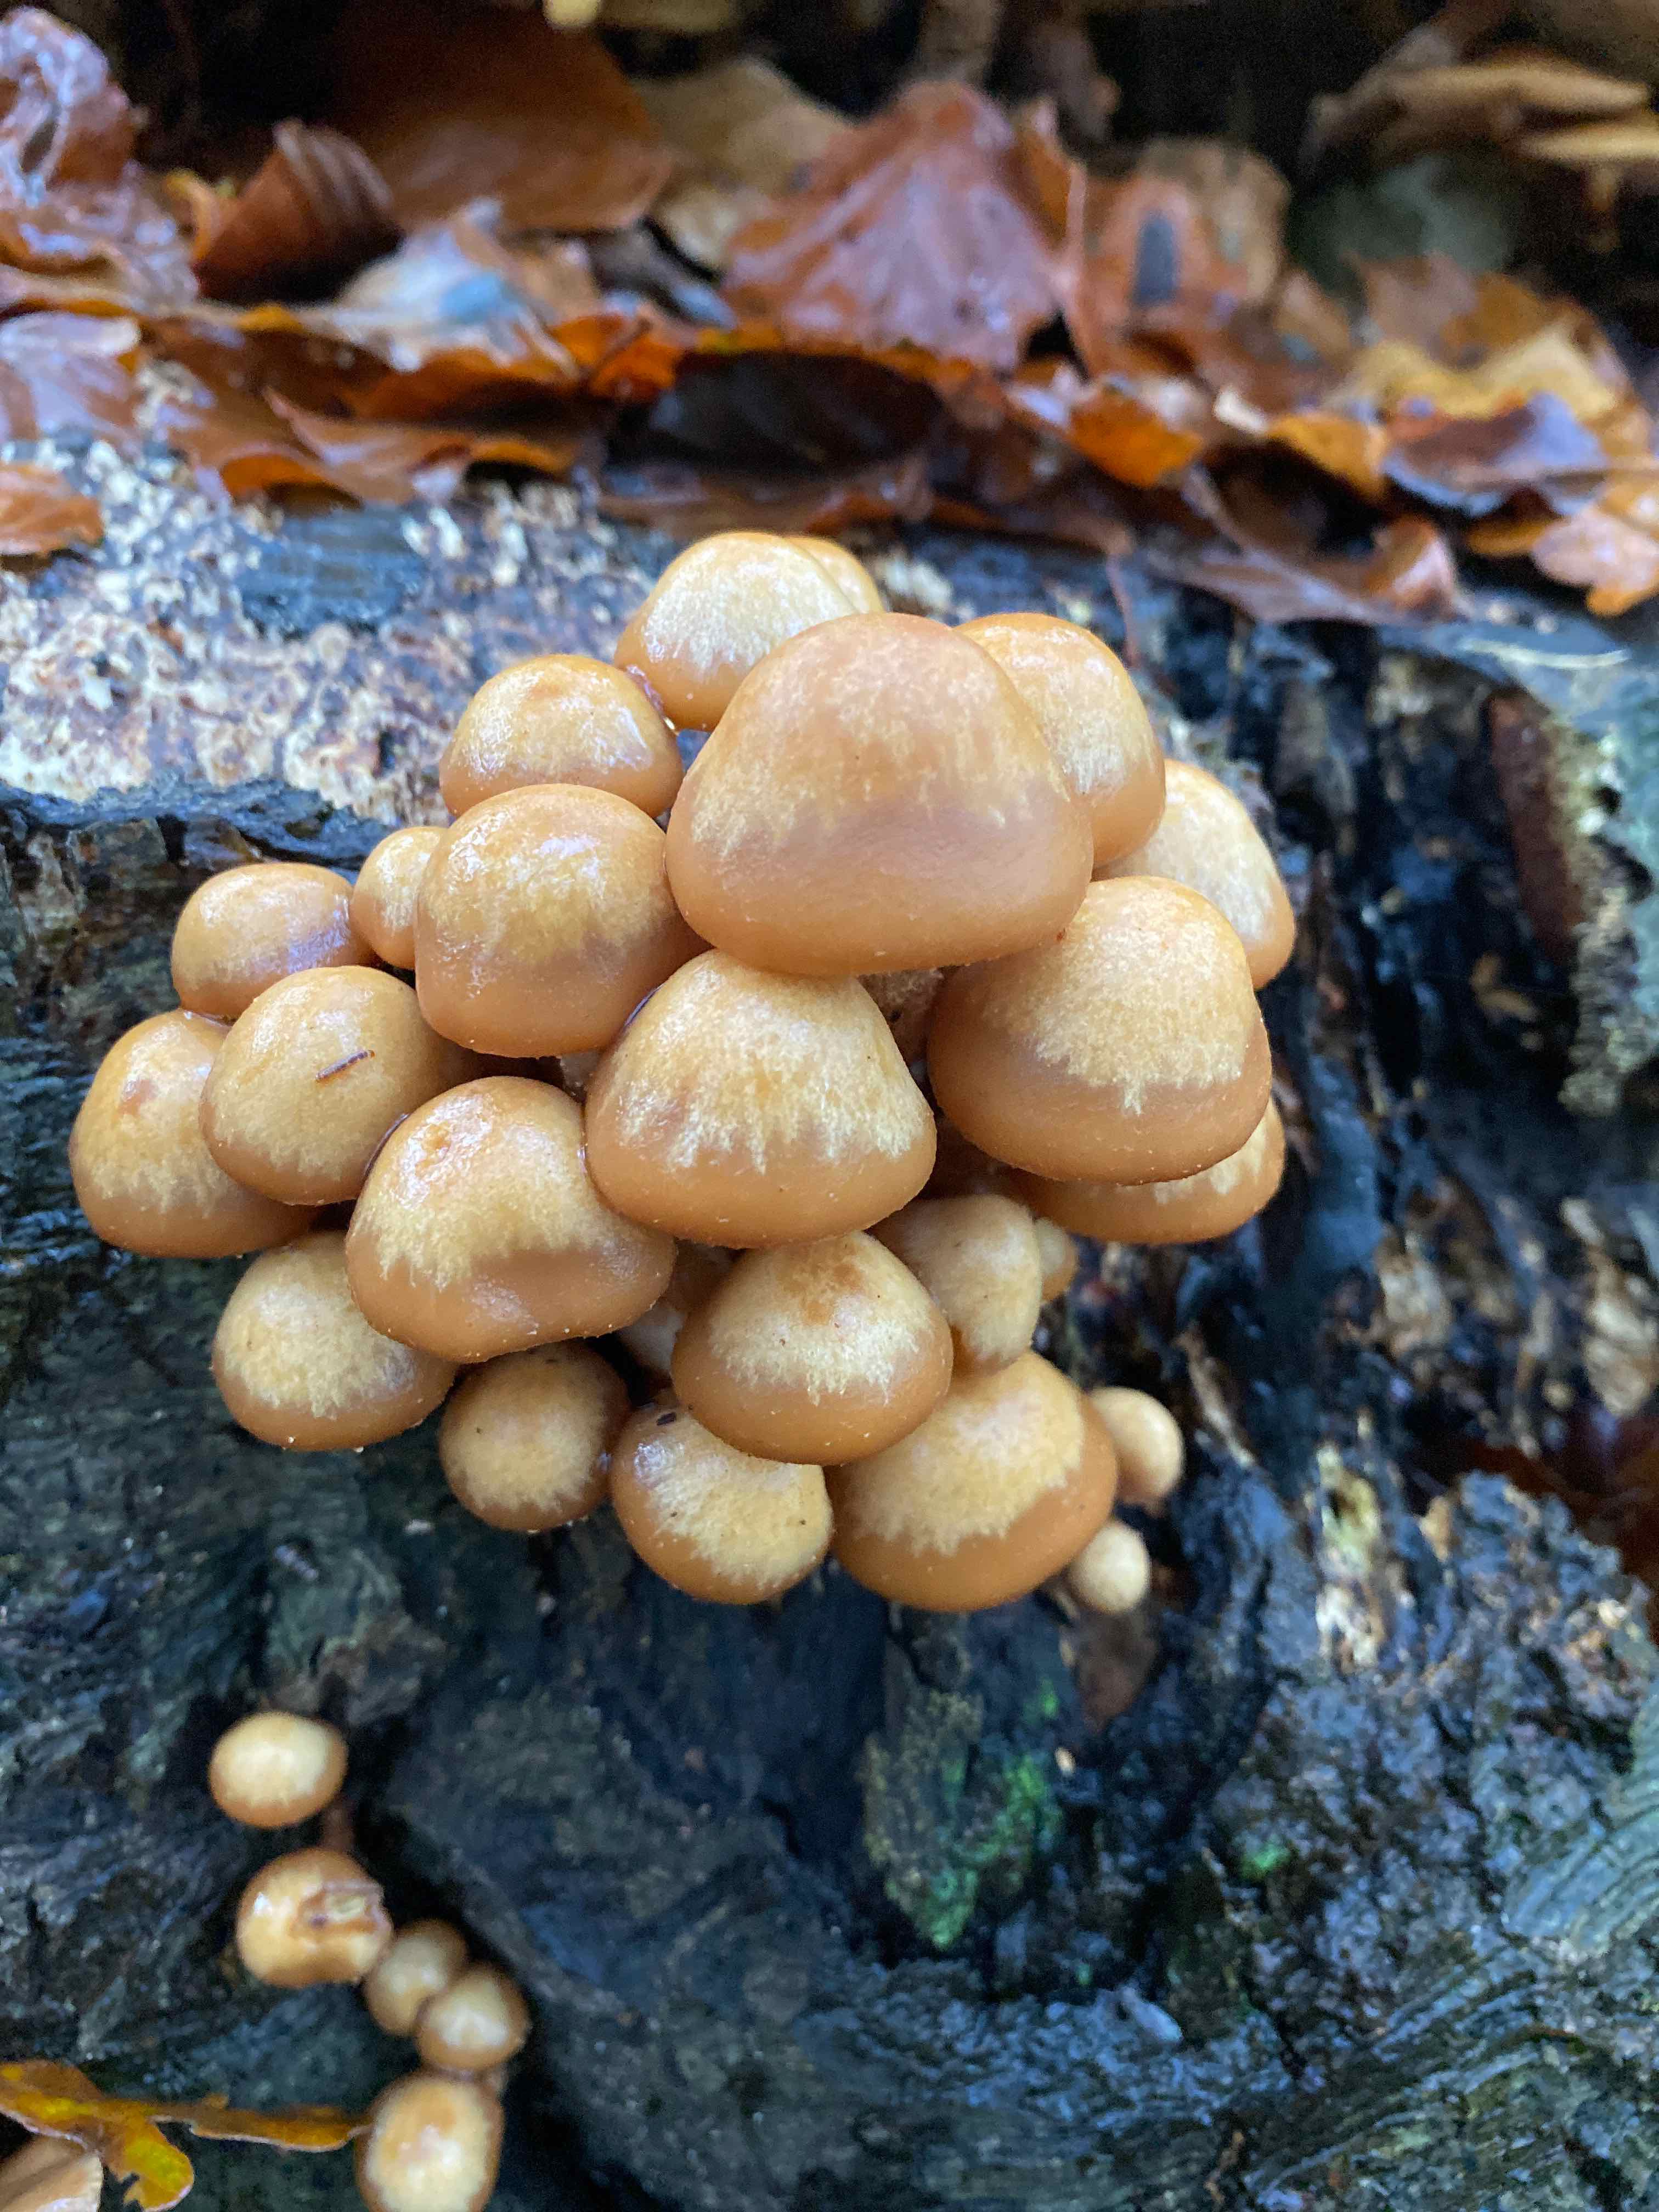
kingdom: Fungi
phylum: Basidiomycota
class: Agaricomycetes
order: Agaricales
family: Strophariaceae
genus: Kuehneromyces
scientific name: Kuehneromyces mutabilis
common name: foranderlig skælhat
